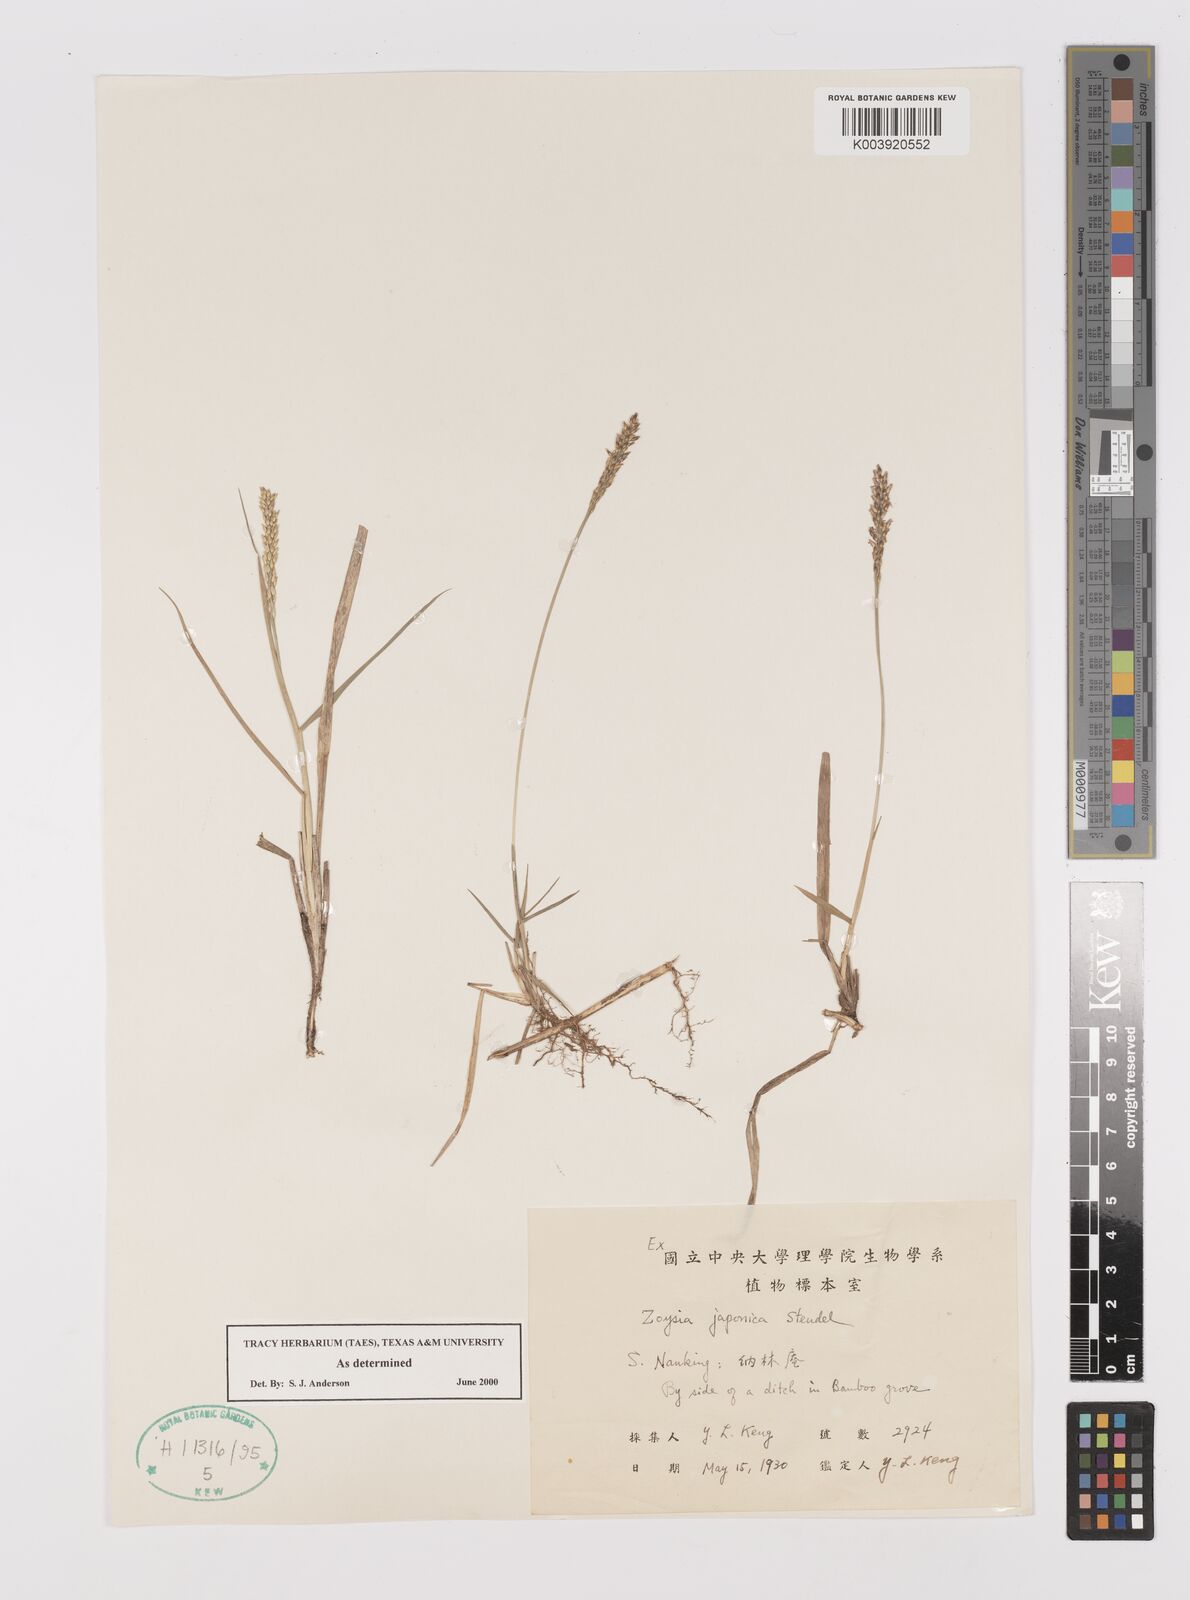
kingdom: Plantae
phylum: Tracheophyta
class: Liliopsida
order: Poales
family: Poaceae
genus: Zoysia
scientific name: Zoysia japonica
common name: Korean lawngrass
